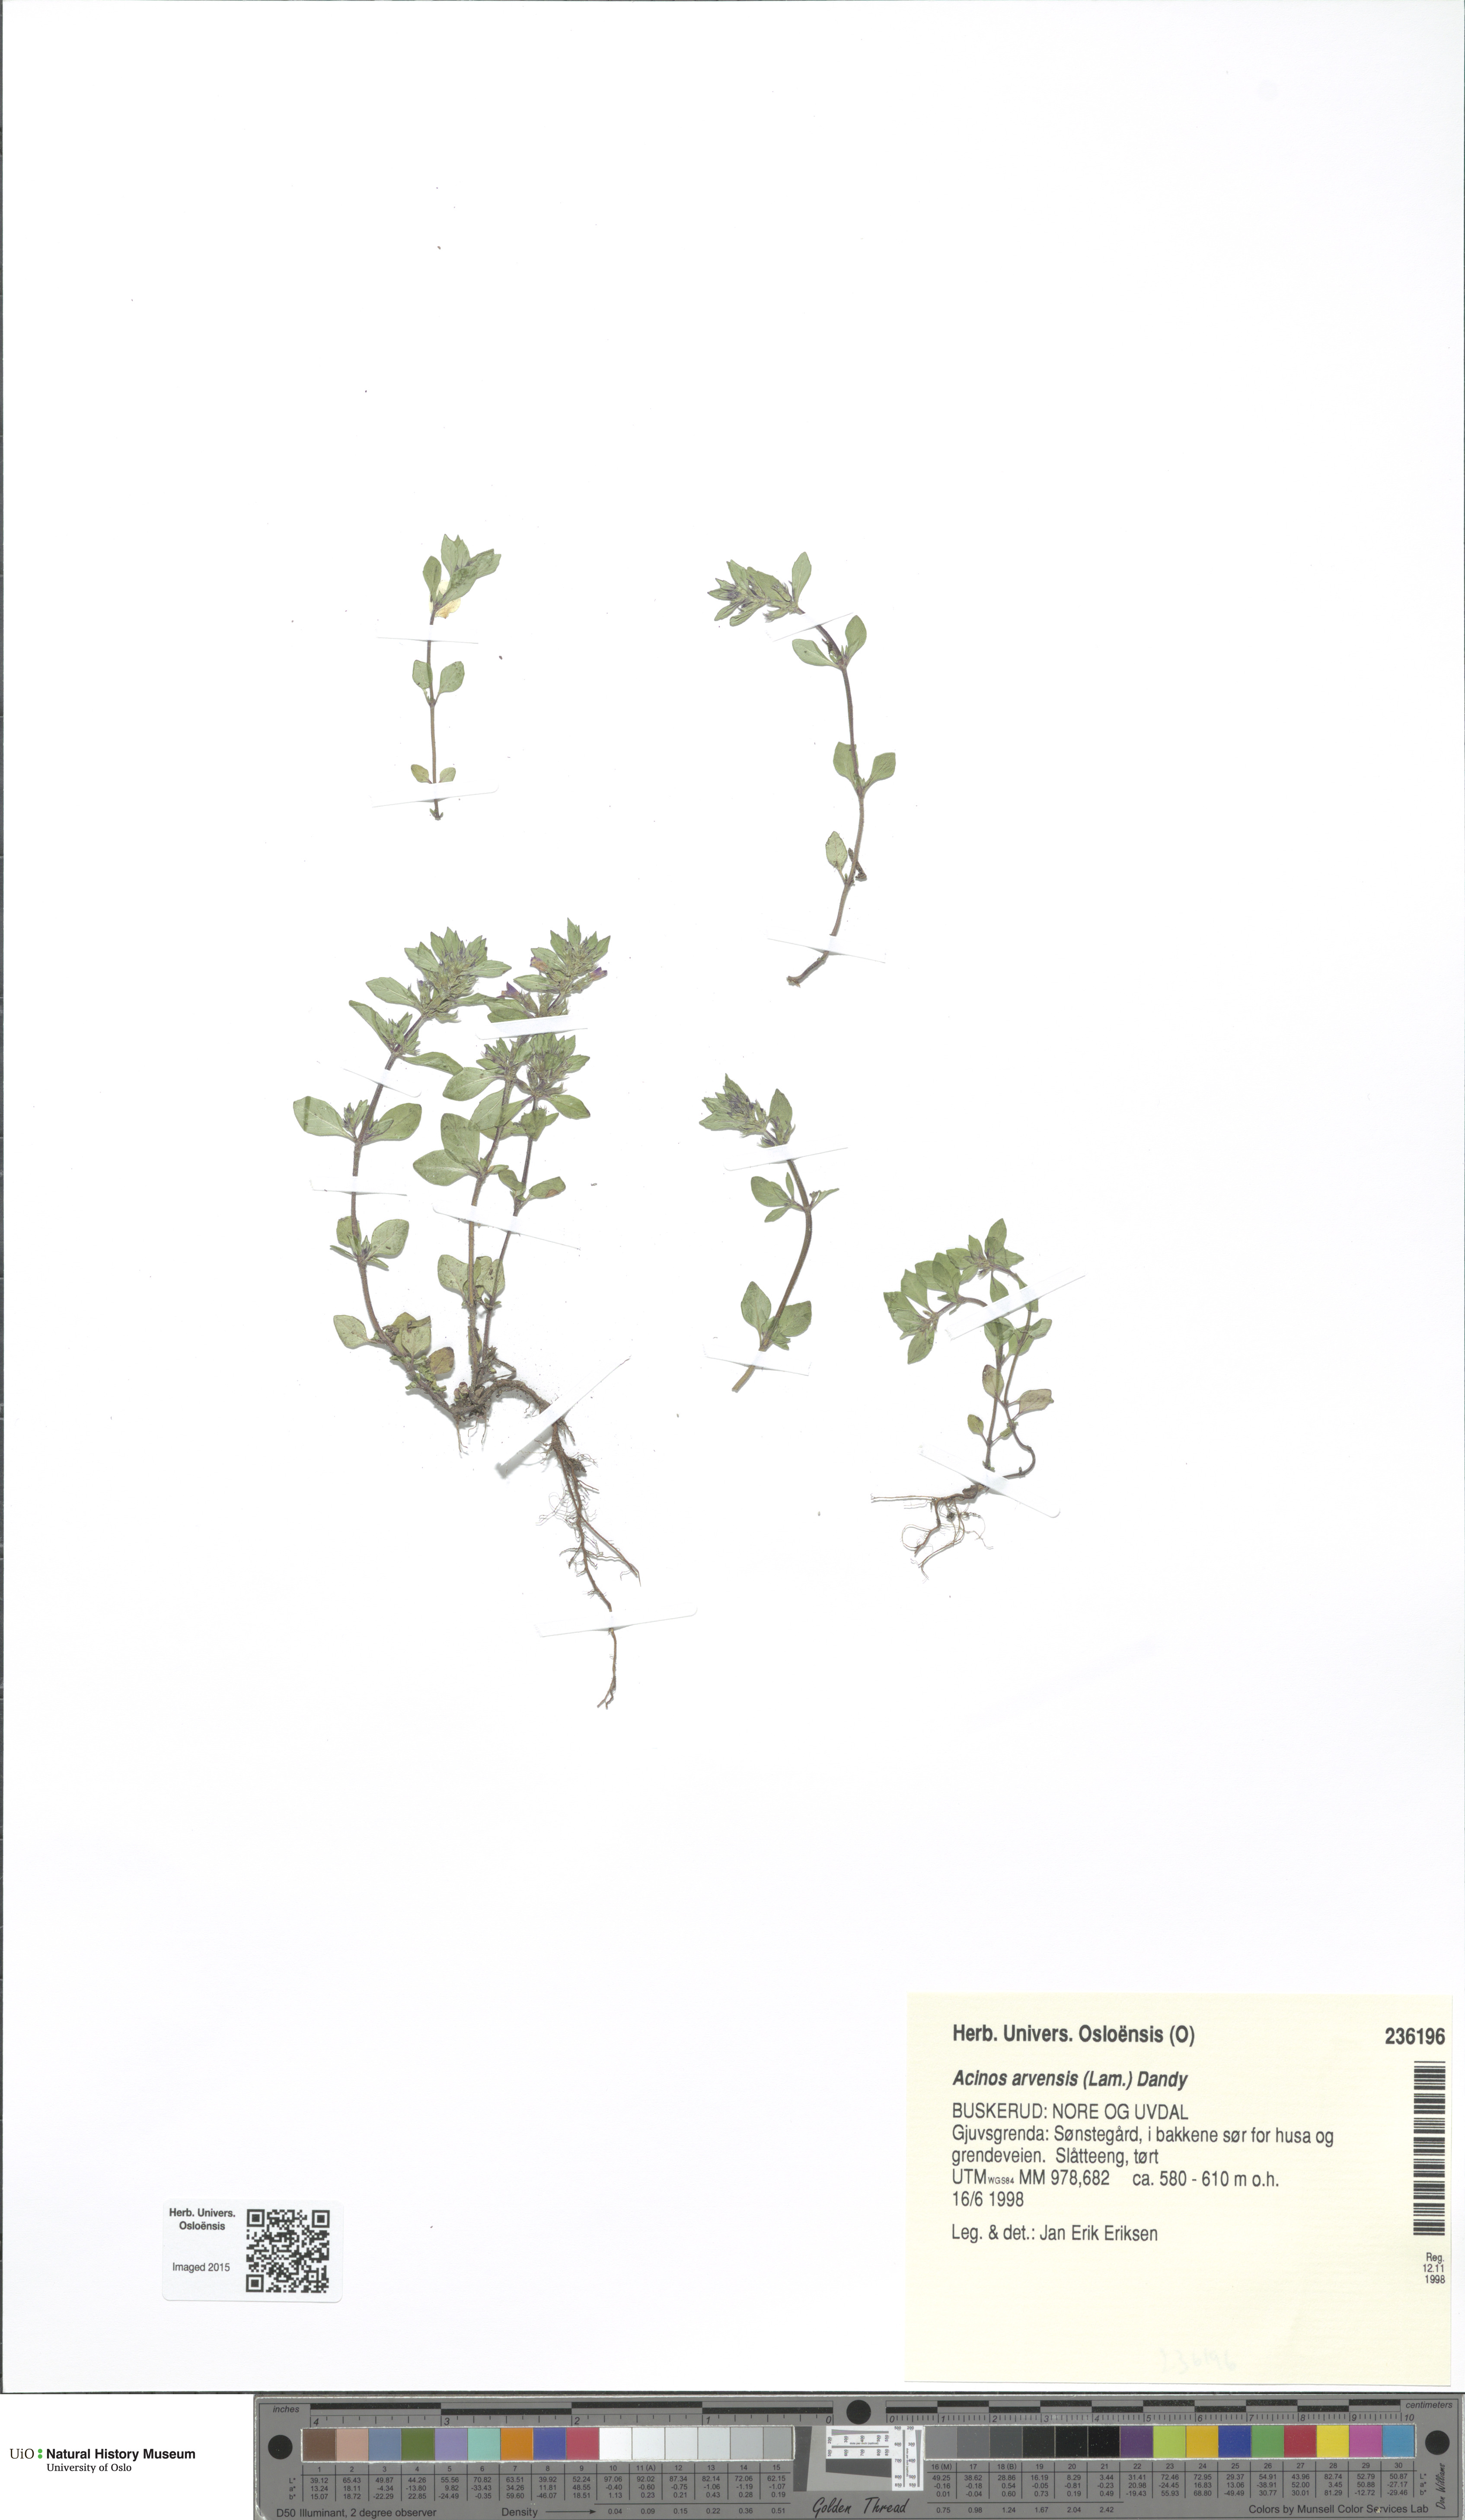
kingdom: Plantae
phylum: Tracheophyta
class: Magnoliopsida
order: Lamiales
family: Lamiaceae
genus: Clinopodium
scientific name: Clinopodium acinos
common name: Basil thyme
